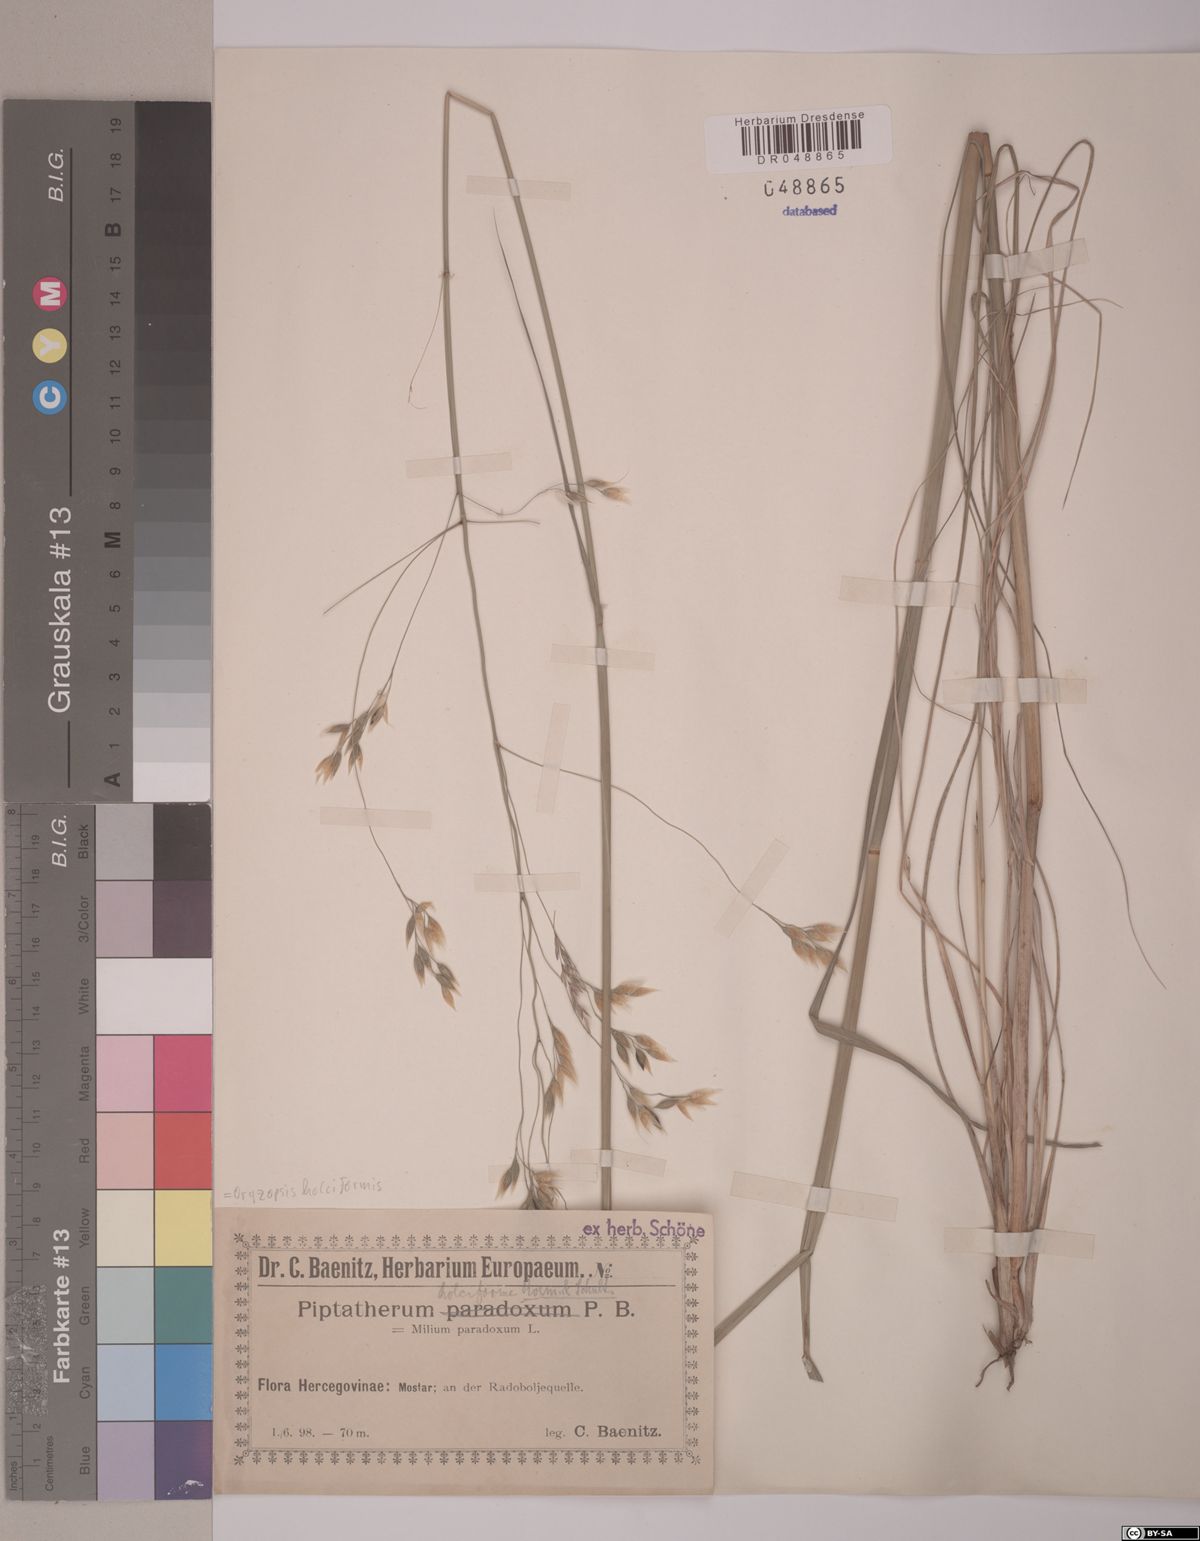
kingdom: Plantae
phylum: Tracheophyta
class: Liliopsida
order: Poales
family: Poaceae
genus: Piptatherum
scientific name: Piptatherum holciforme
